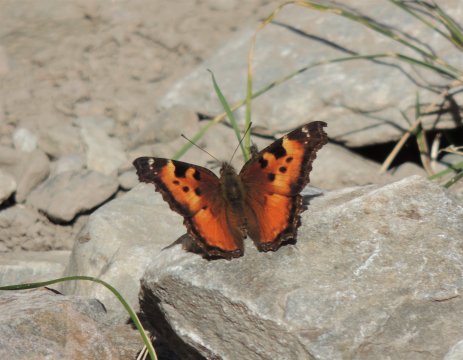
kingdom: Animalia
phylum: Arthropoda
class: Insecta
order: Lepidoptera
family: Nymphalidae
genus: Nymphalis
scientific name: Nymphalis californica
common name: California Tortoiseshell
